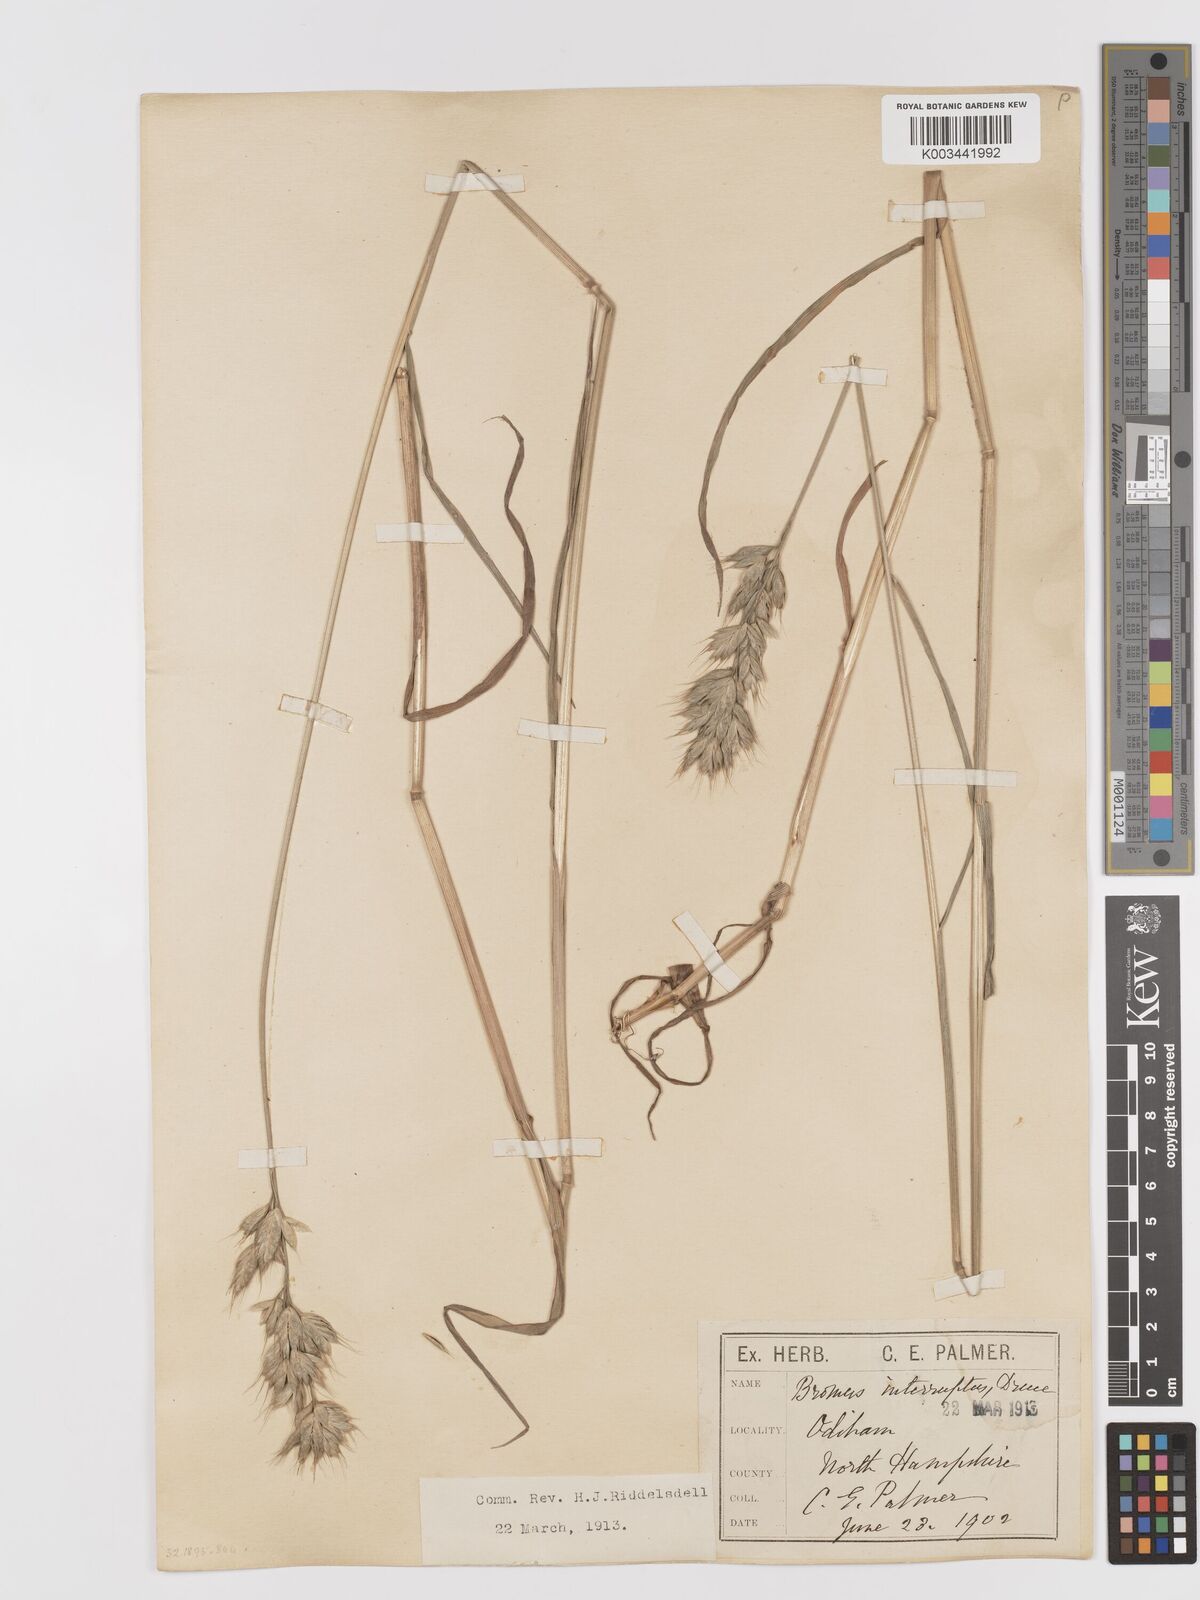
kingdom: Plantae
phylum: Tracheophyta
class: Liliopsida
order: Poales
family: Poaceae
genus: Bromus
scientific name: Bromus interruptus
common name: Interrupted brome
